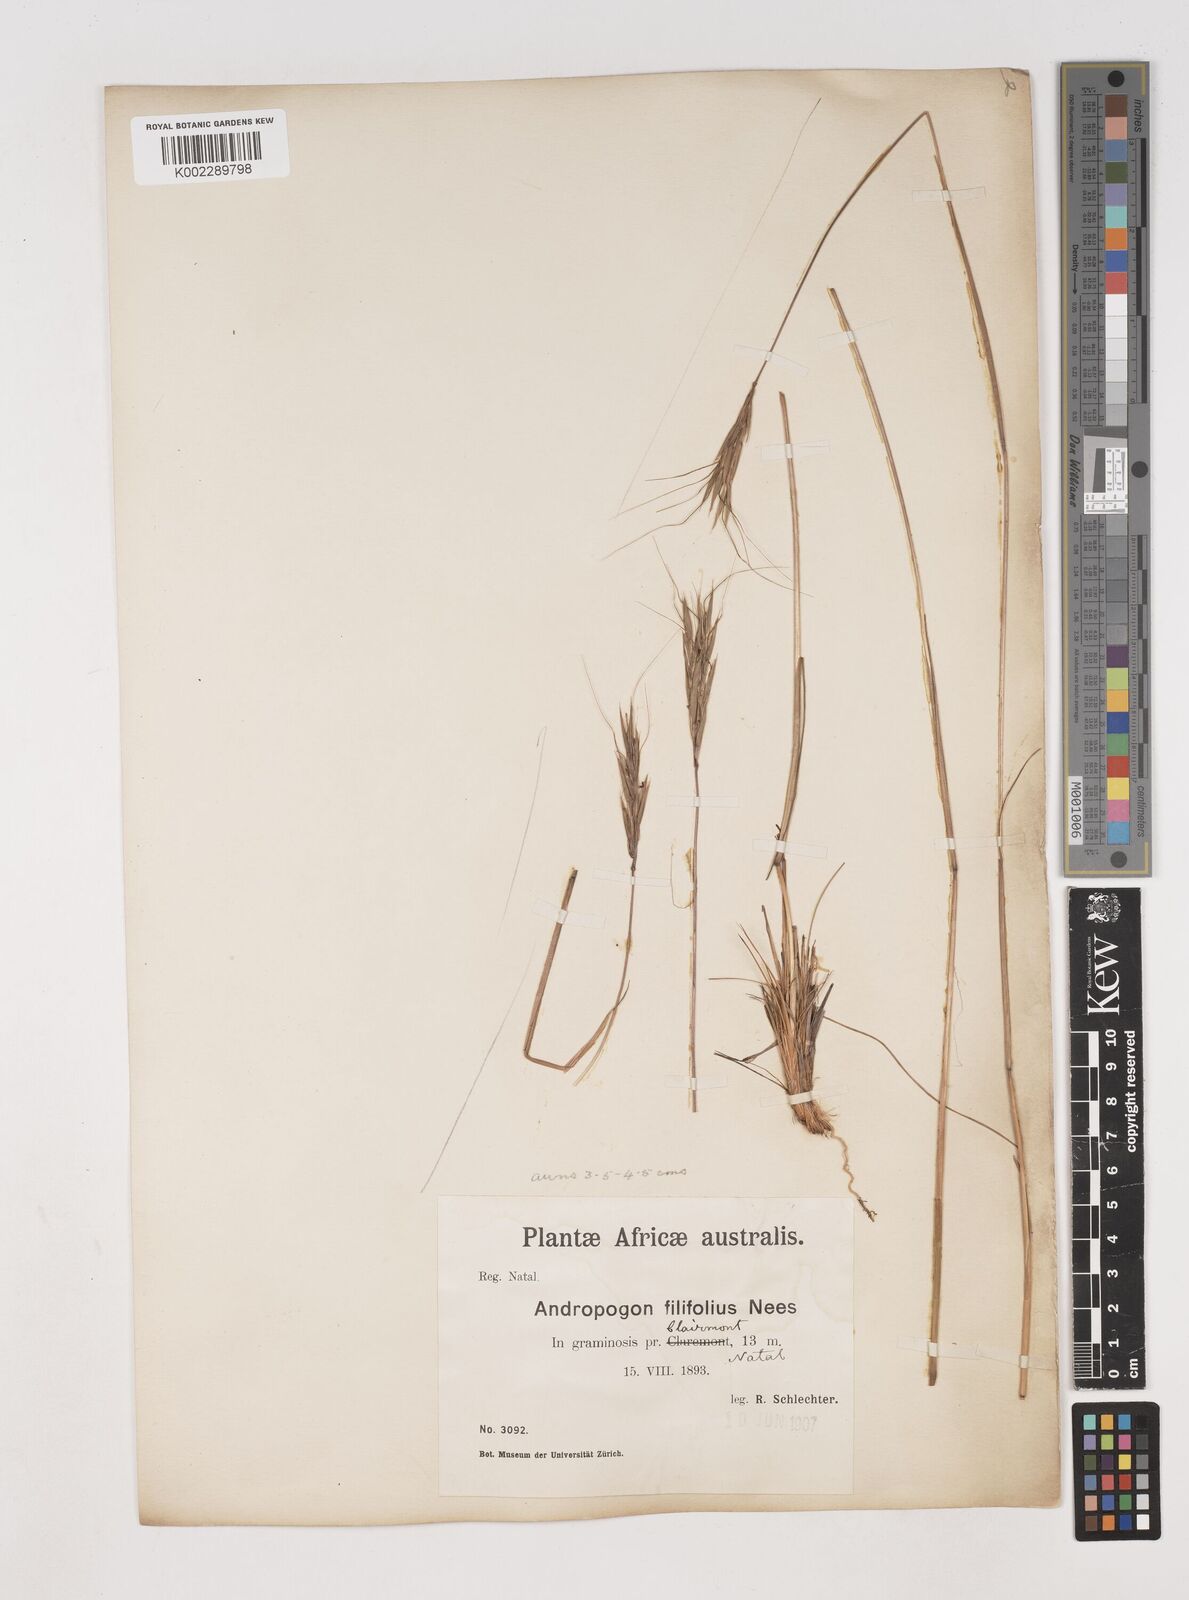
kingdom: Plantae
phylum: Tracheophyta
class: Liliopsida
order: Poales
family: Poaceae
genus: Diheteropogon
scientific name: Diheteropogon filifolius
